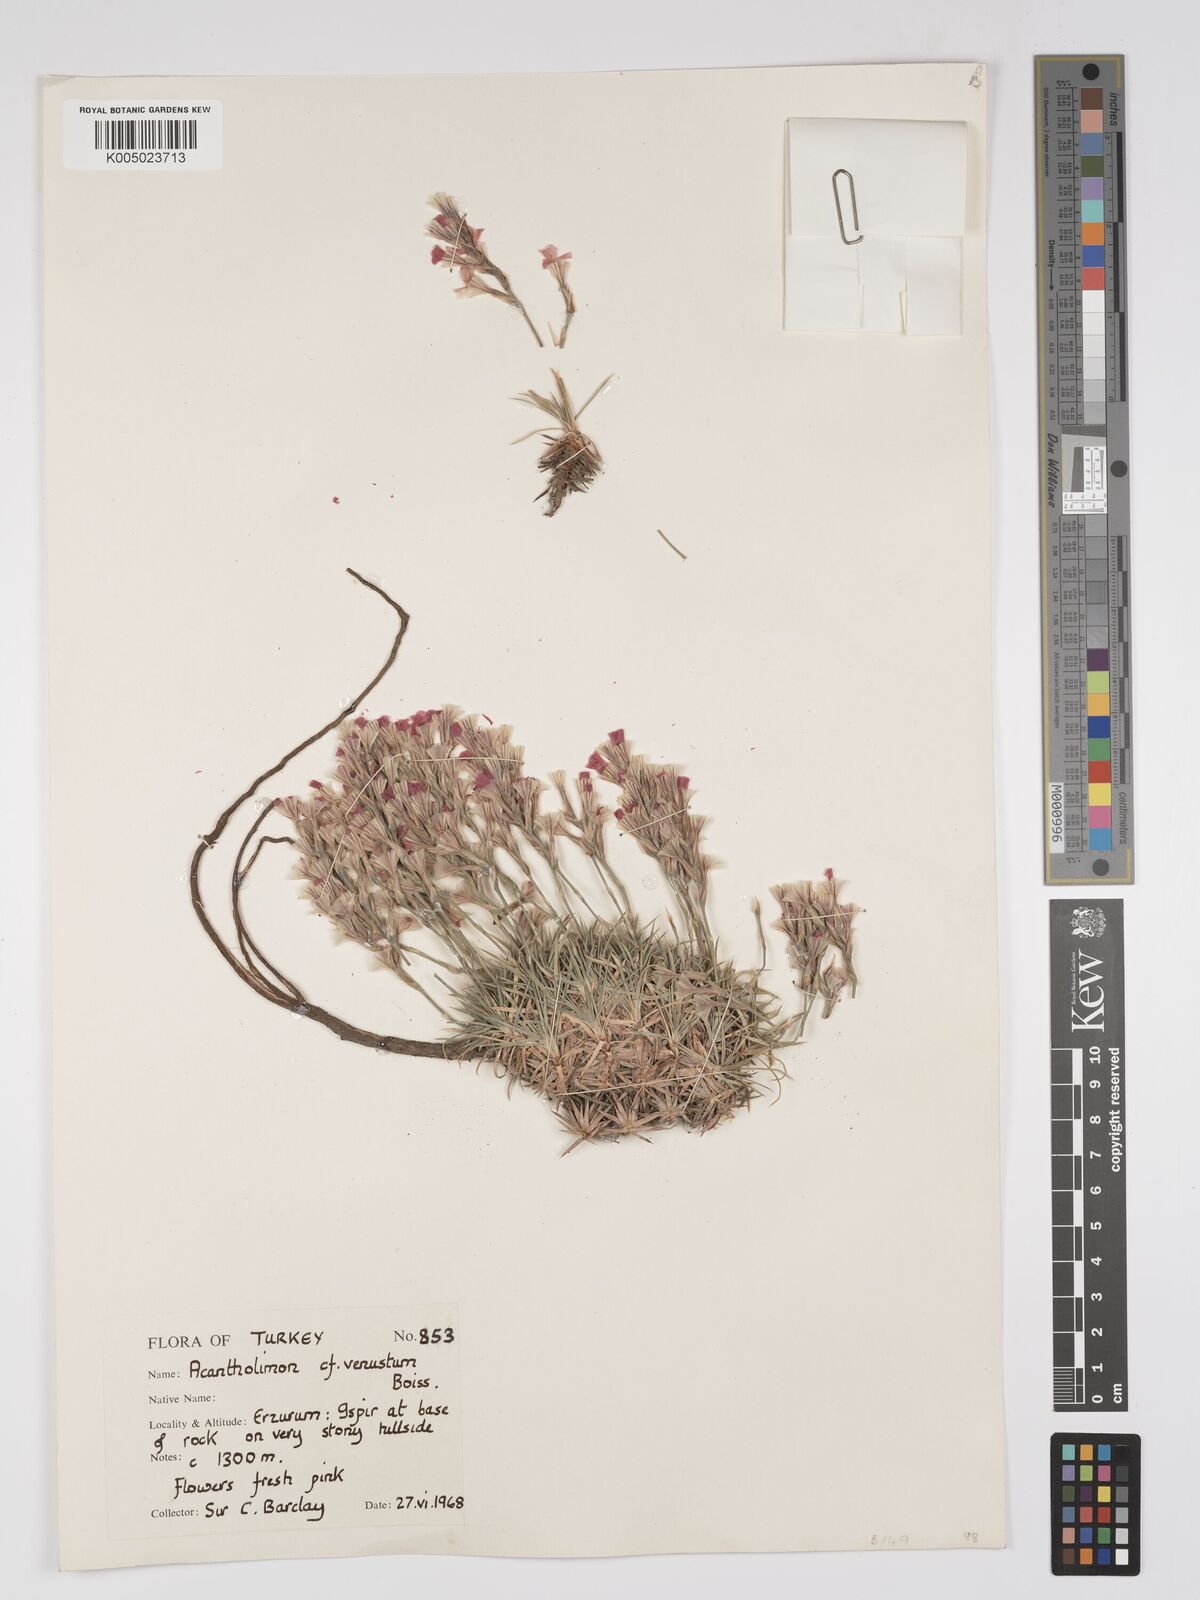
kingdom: Plantae
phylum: Tracheophyta
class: Magnoliopsida
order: Caryophyllales
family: Plumbaginaceae
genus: Acantholimon
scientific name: Acantholimon venustum
